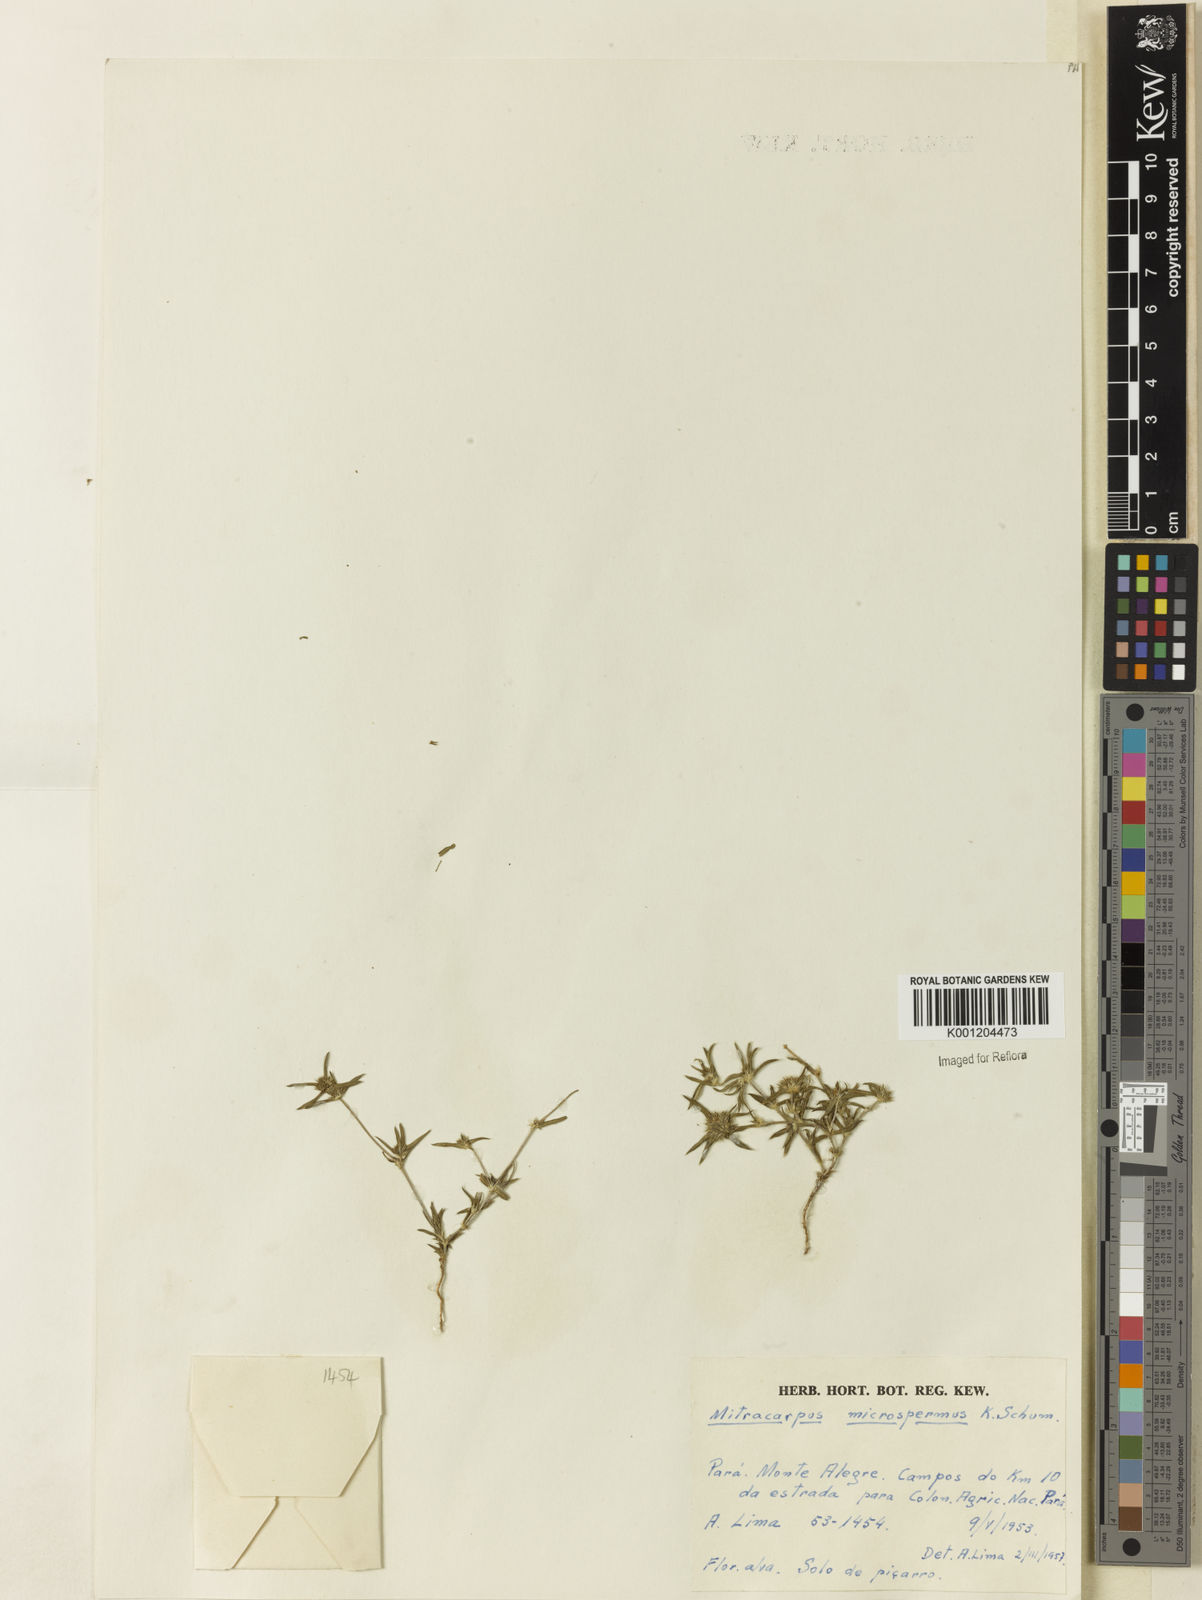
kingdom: Plantae
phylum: Tracheophyta
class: Magnoliopsida
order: Gentianales
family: Rubiaceae
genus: Mitracarpus
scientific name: Mitracarpus microspermus
